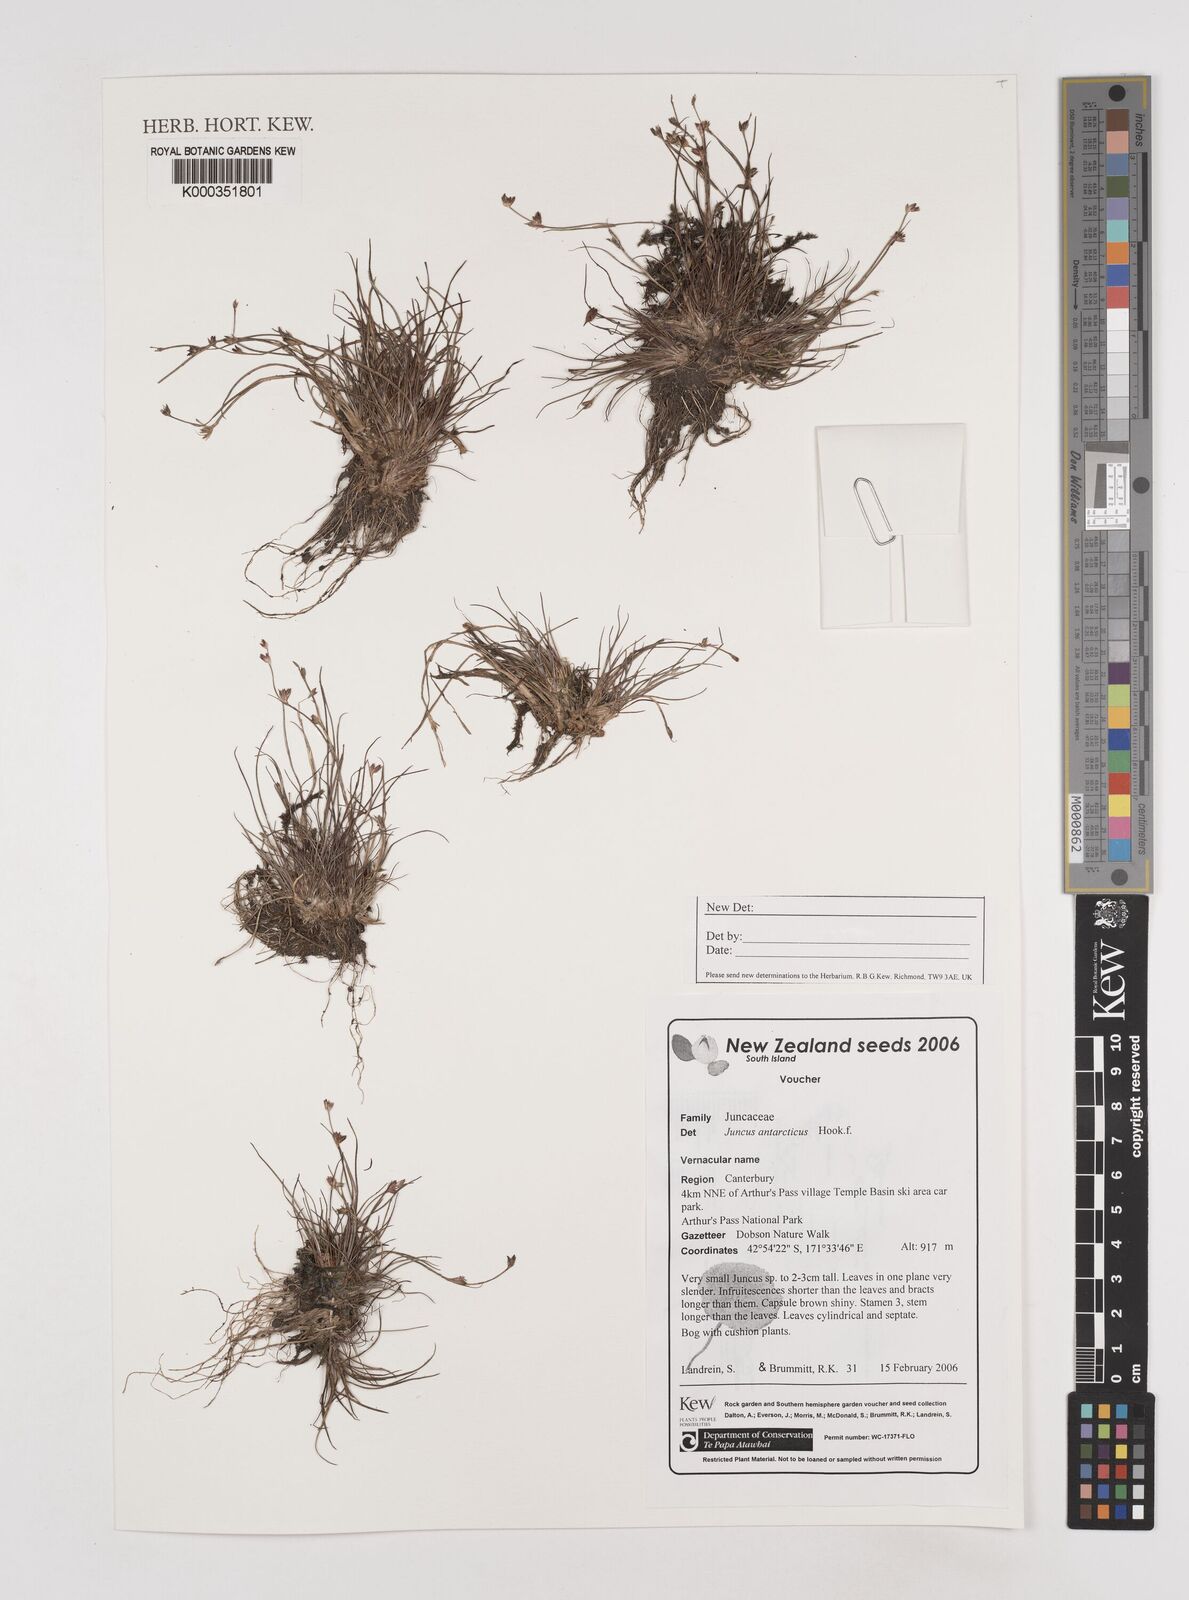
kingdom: Plantae
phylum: Tracheophyta
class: Liliopsida
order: Poales
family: Juncaceae
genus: Juncus
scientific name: Juncus antarcticus
